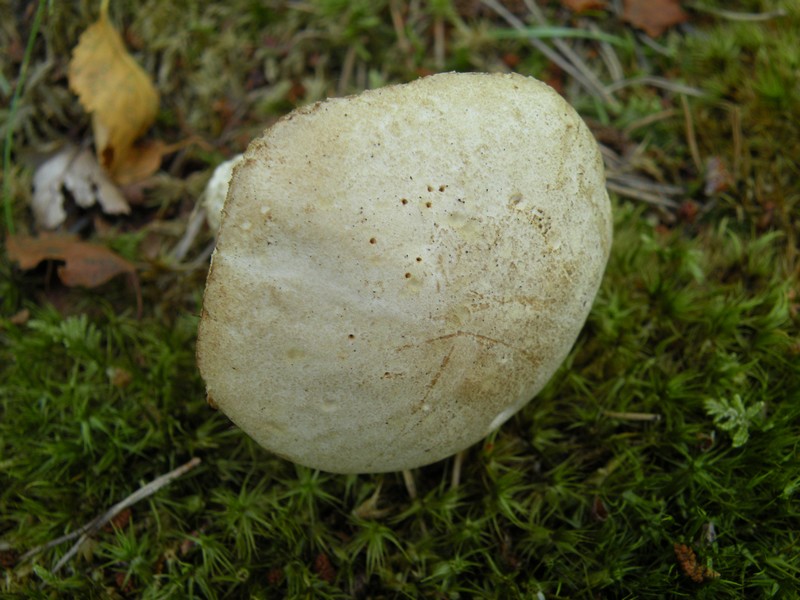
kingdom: Fungi
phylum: Basidiomycota
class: Agaricomycetes
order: Boletales
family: Boletaceae
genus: Leccinum
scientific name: Leccinum scabrum
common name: hvid skælrørhat
